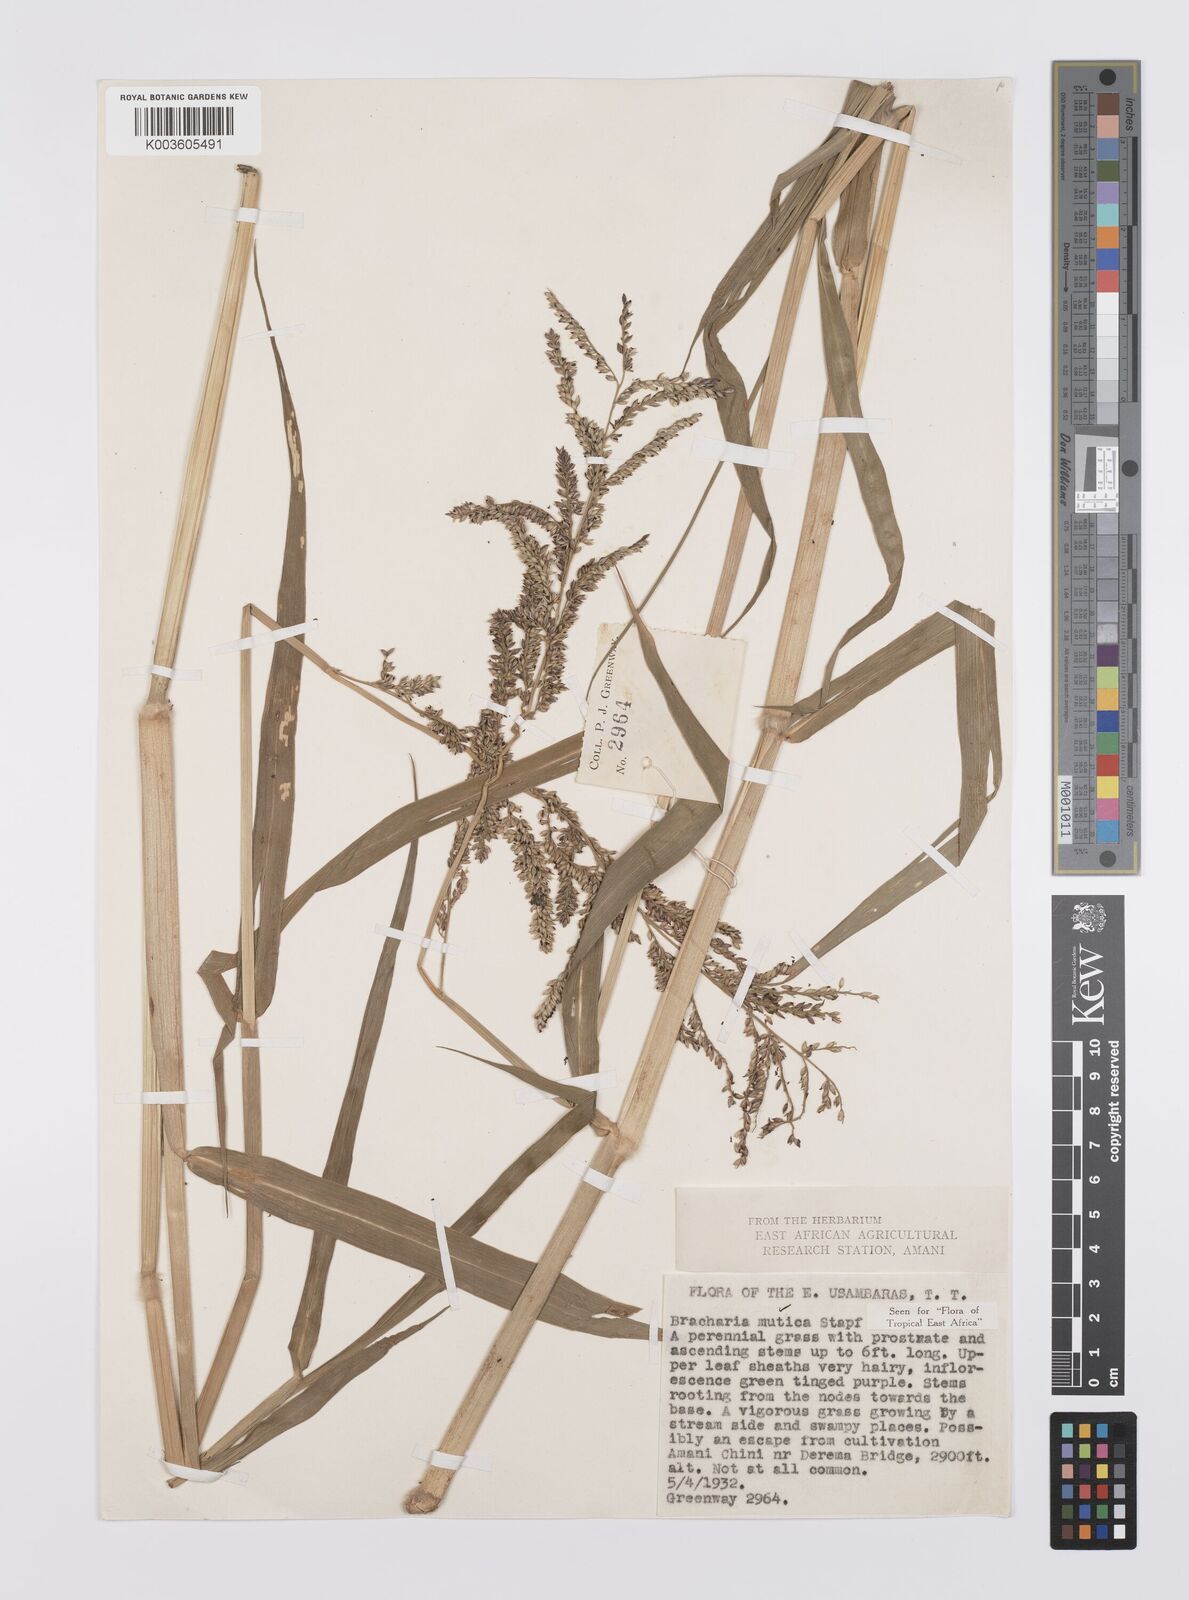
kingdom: Plantae
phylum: Tracheophyta
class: Liliopsida
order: Poales
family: Poaceae
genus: Urochloa
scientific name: Urochloa mutica
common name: Para grass
